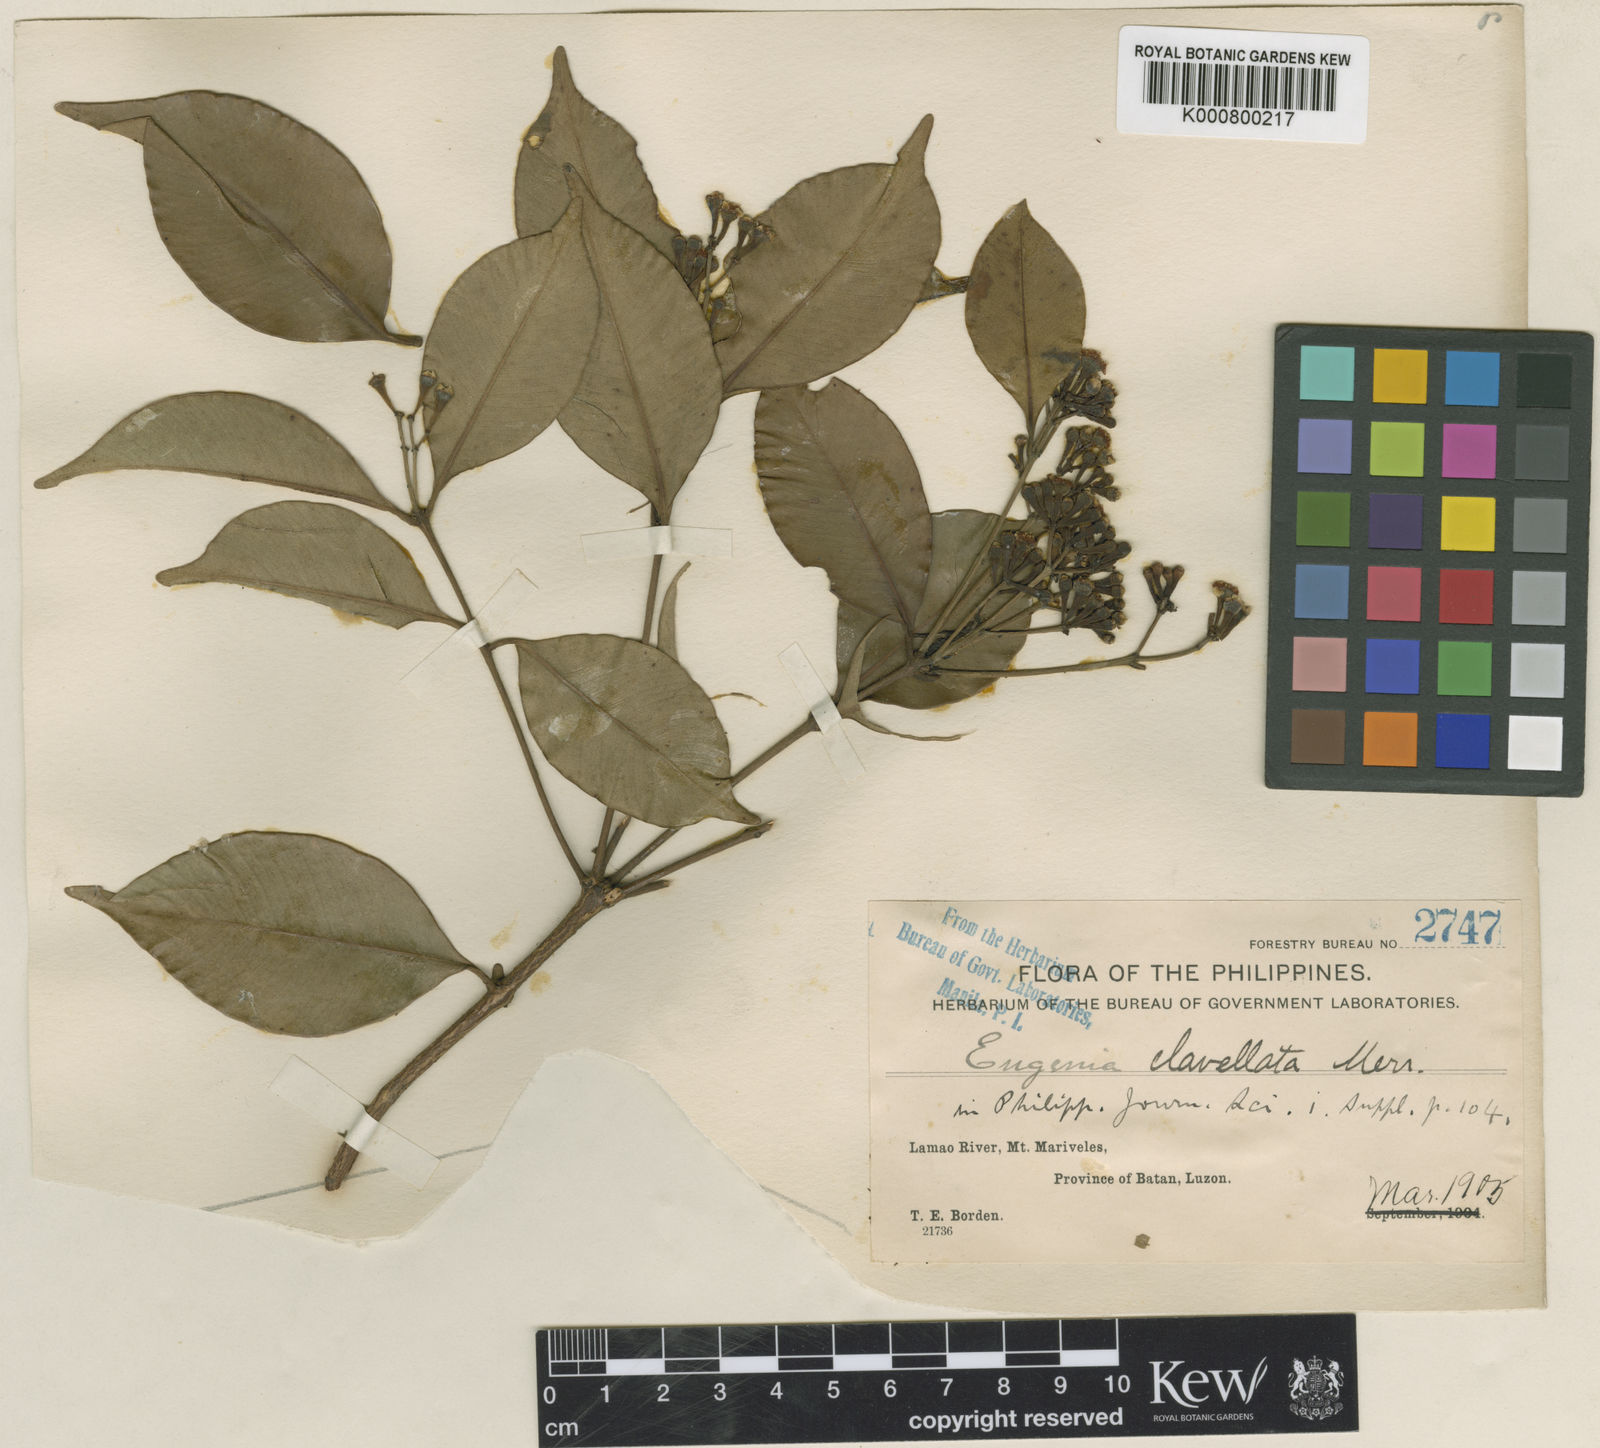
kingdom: Plantae
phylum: Tracheophyta
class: Magnoliopsida
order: Myrtales
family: Myrtaceae
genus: Syzygium
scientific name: Syzygium clavellatum
